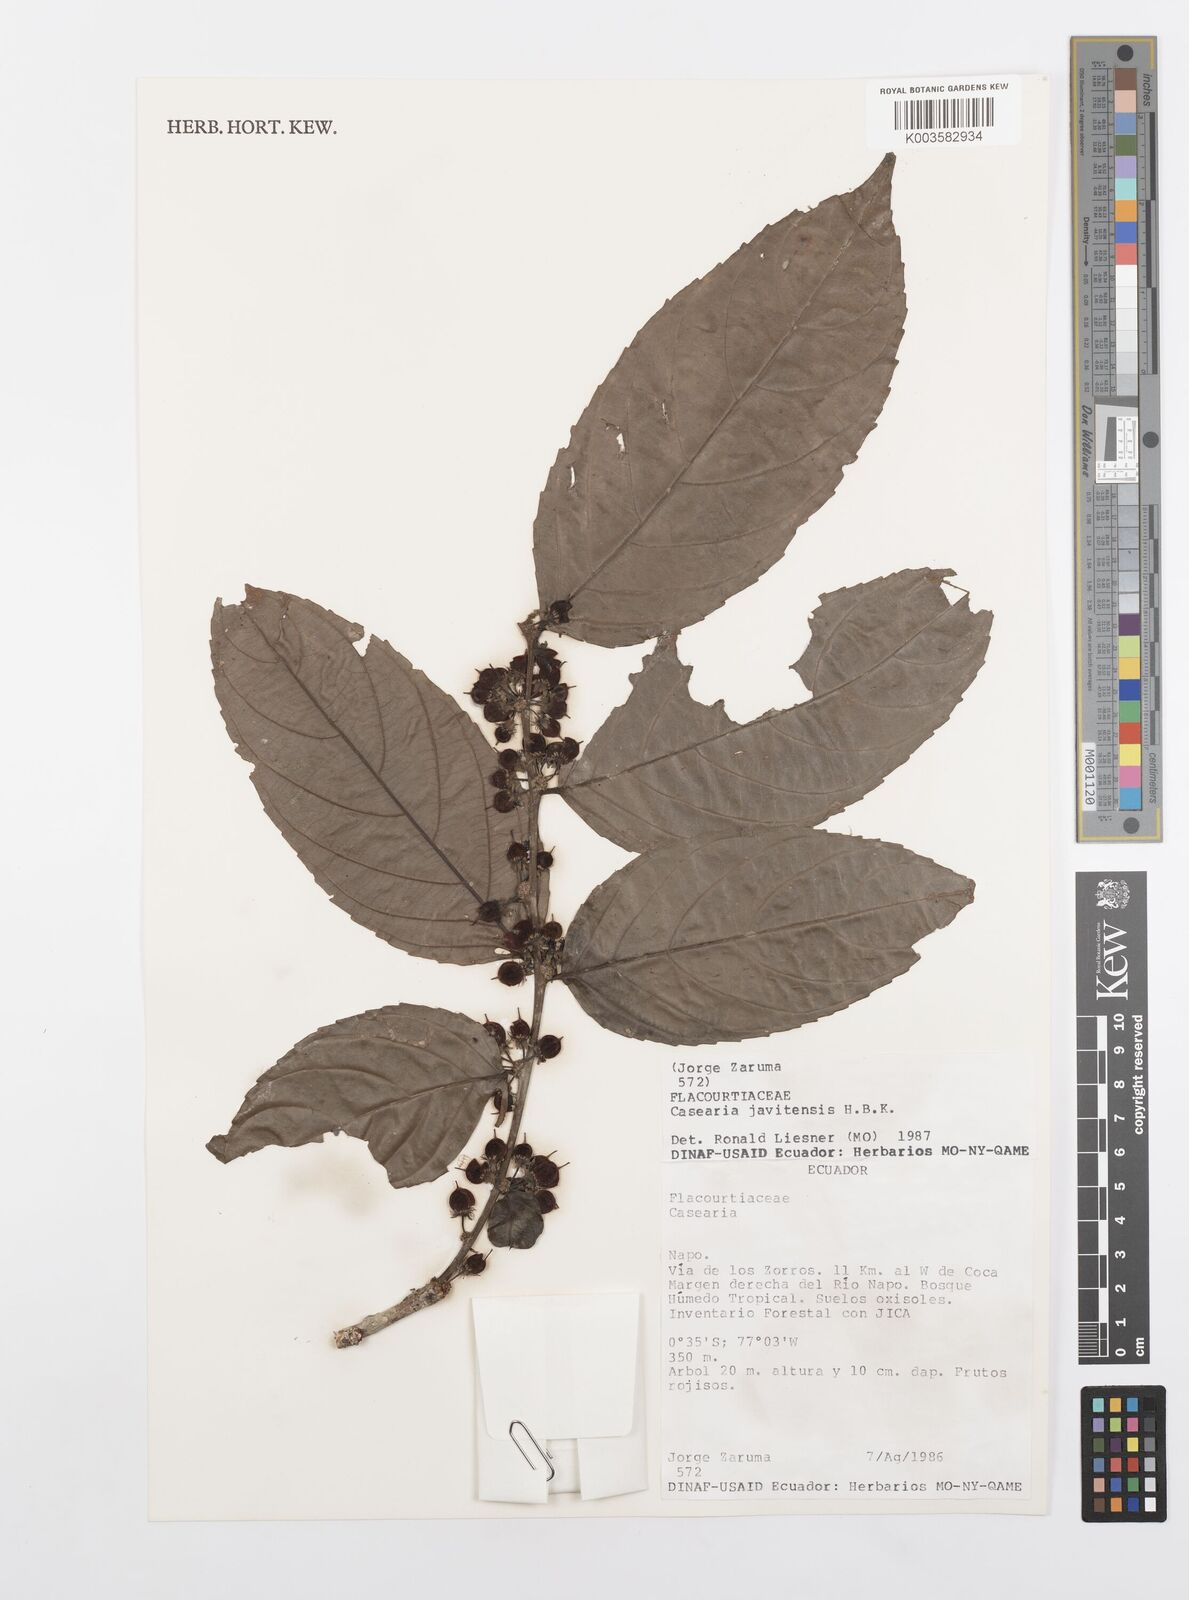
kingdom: Plantae
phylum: Tracheophyta
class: Magnoliopsida
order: Malpighiales
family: Salicaceae
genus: Piparea
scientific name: Piparea multiflora
